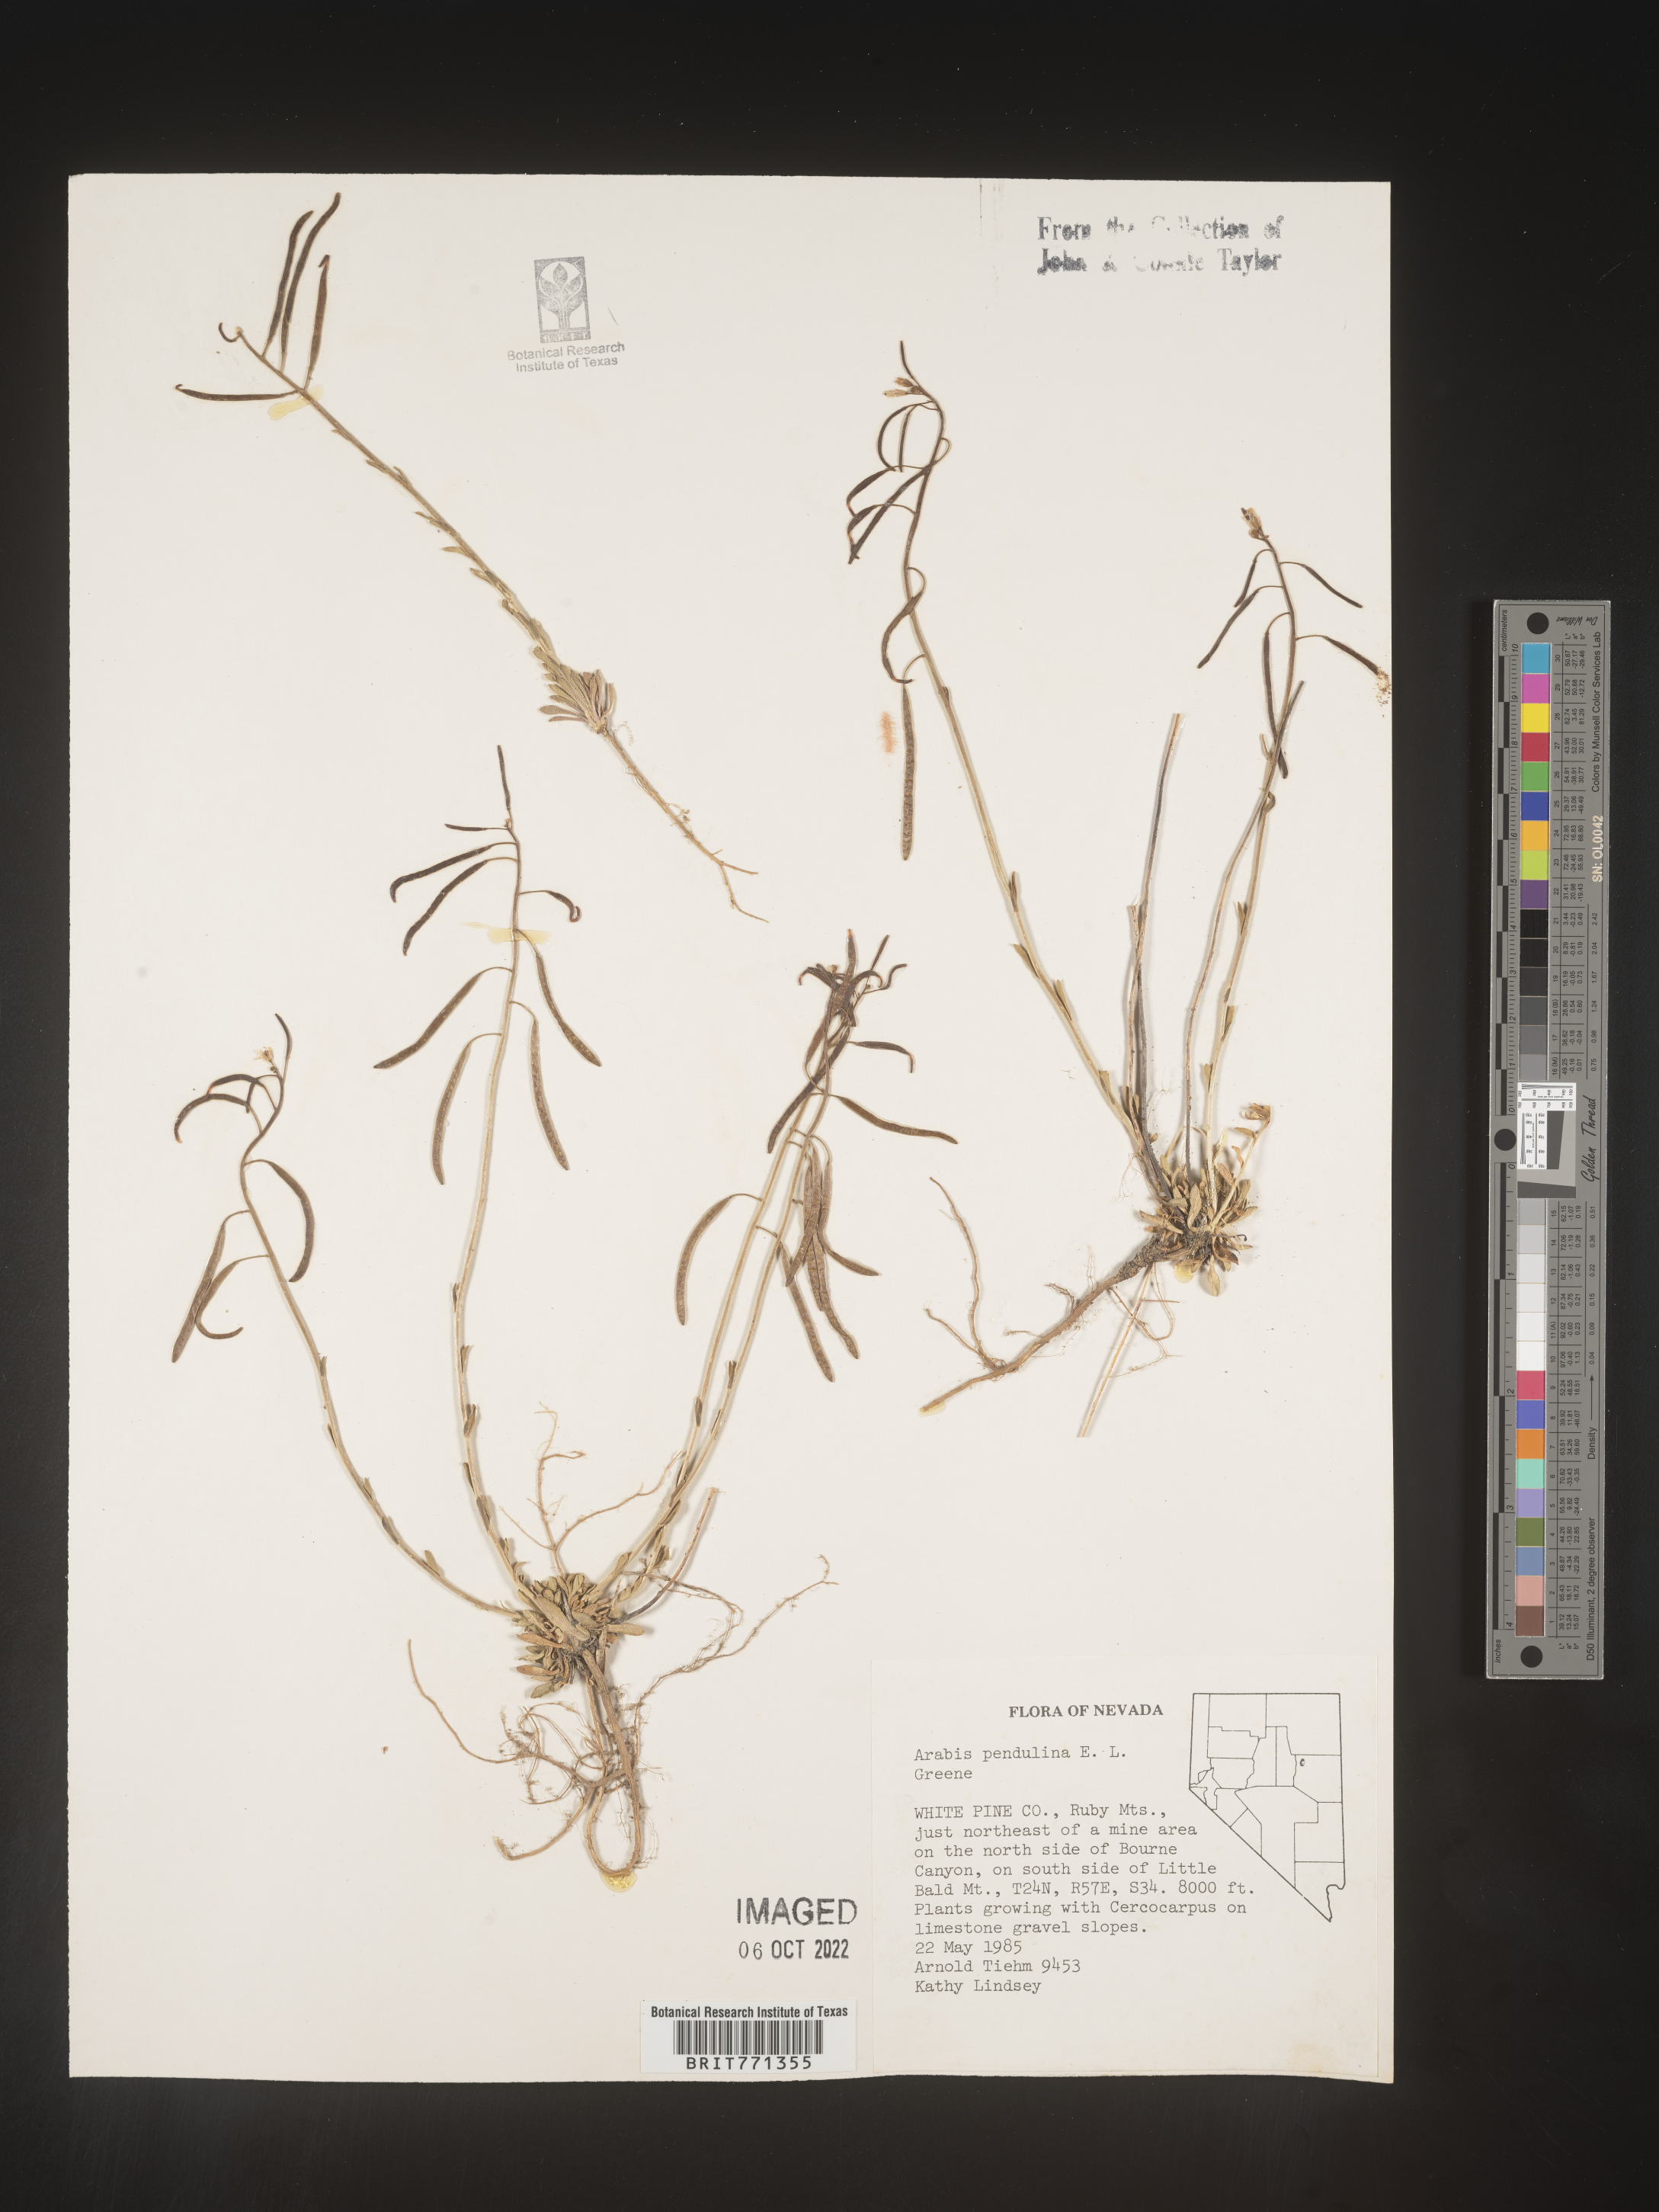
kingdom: Plantae
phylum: Tracheophyta
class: Magnoliopsida
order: Brassicales
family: Brassicaceae
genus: Arabis
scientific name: Arabis
